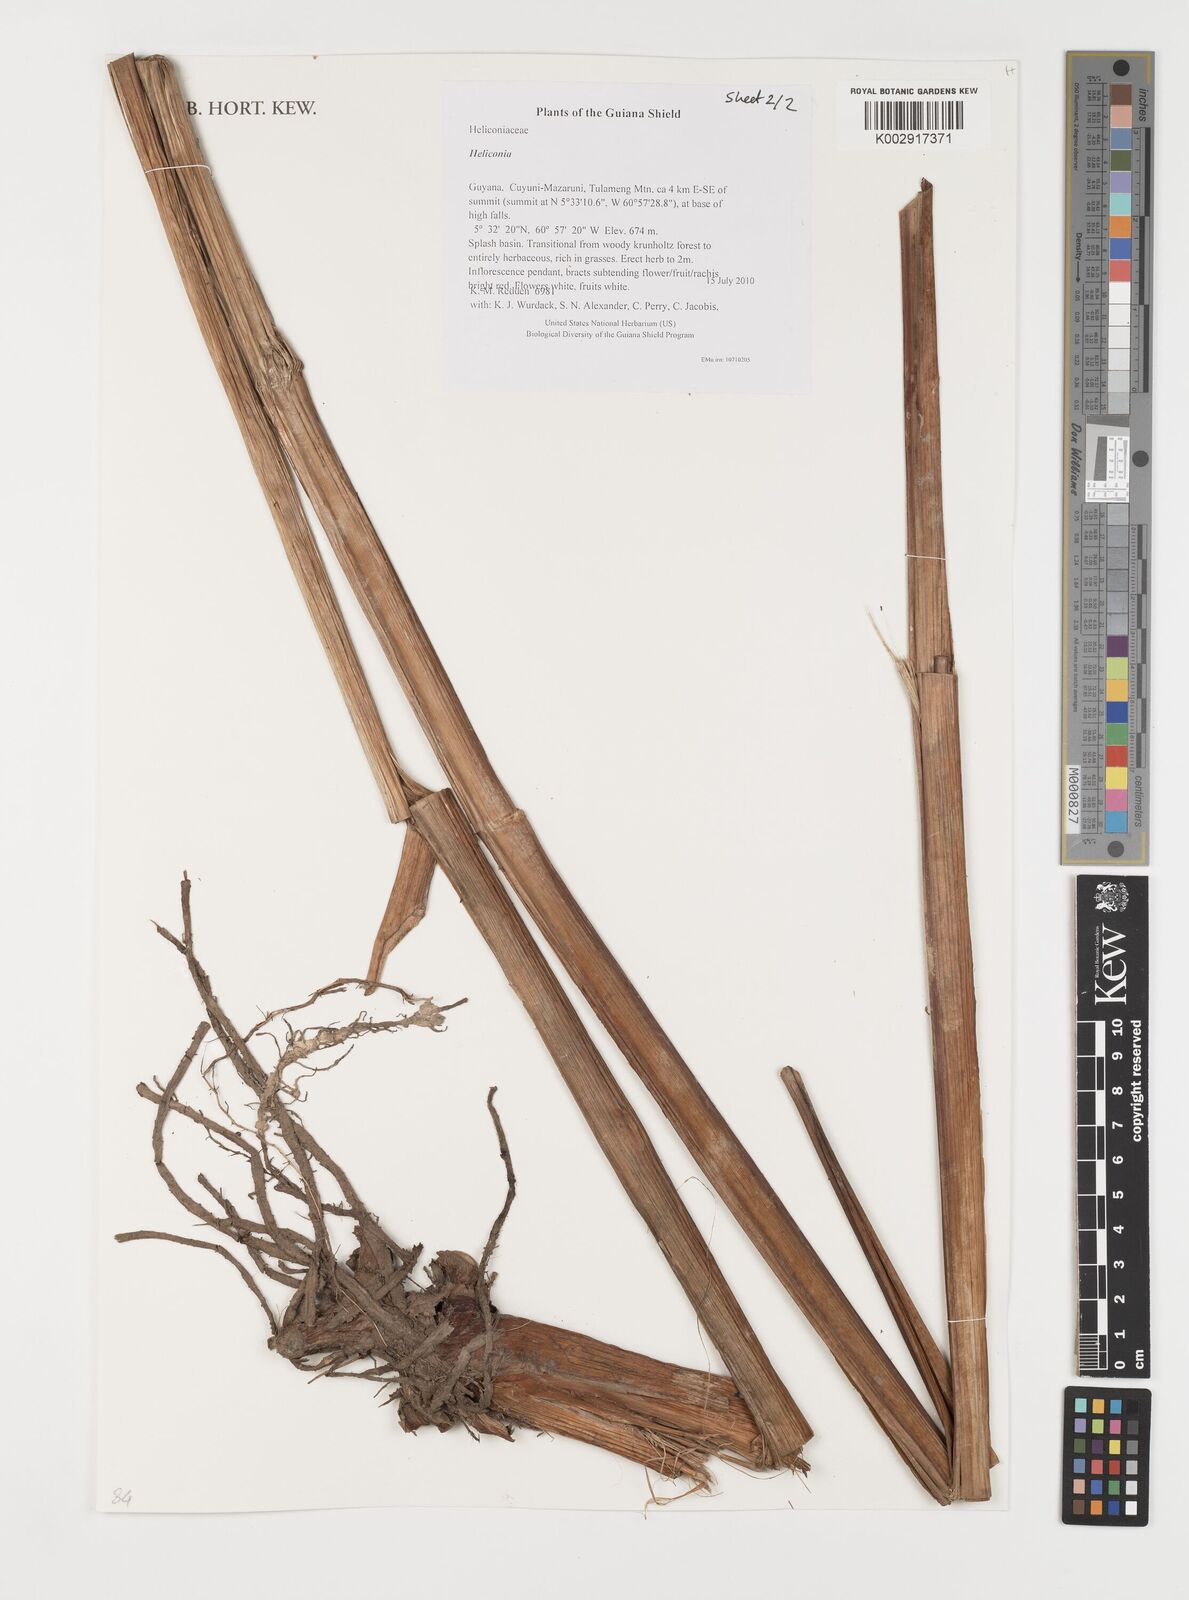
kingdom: Plantae
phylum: Tracheophyta
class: Liliopsida
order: Zingiberales
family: Heliconiaceae
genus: Heliconia
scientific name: Heliconia
